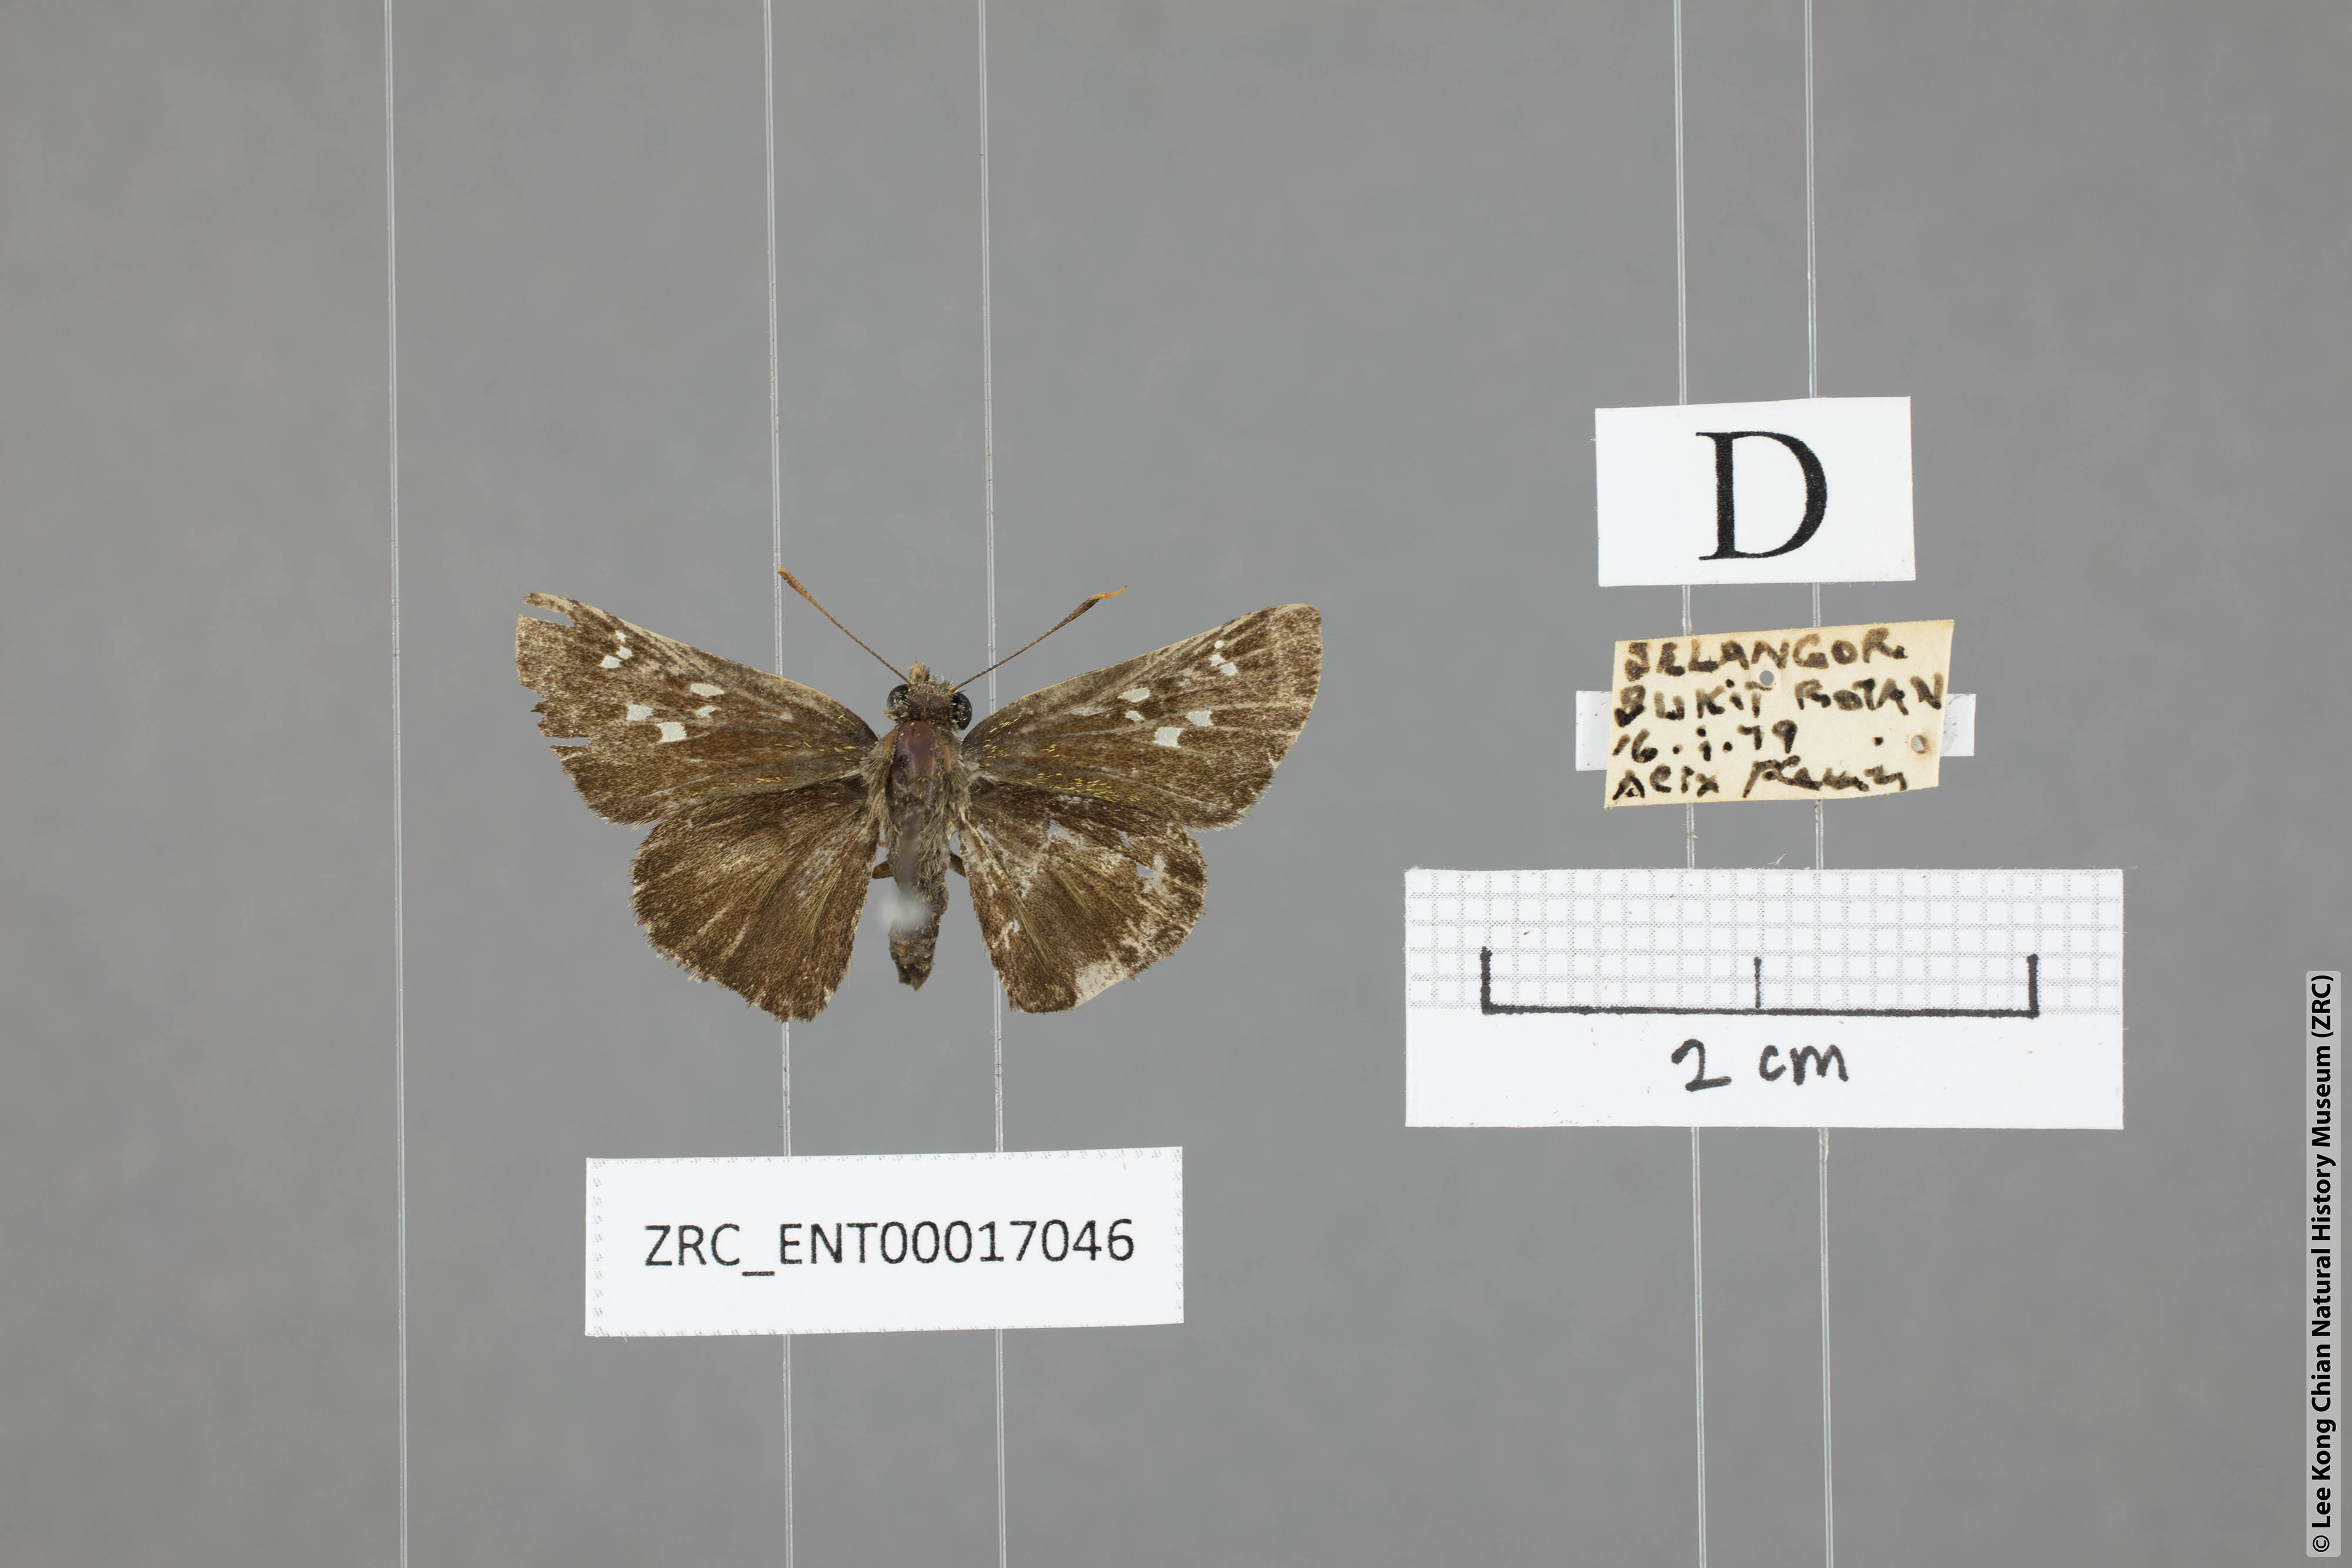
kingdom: Animalia
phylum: Arthropoda
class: Insecta
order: Lepidoptera
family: Hesperiidae
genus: Halpe
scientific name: Halpe porus
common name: Moore's ace
